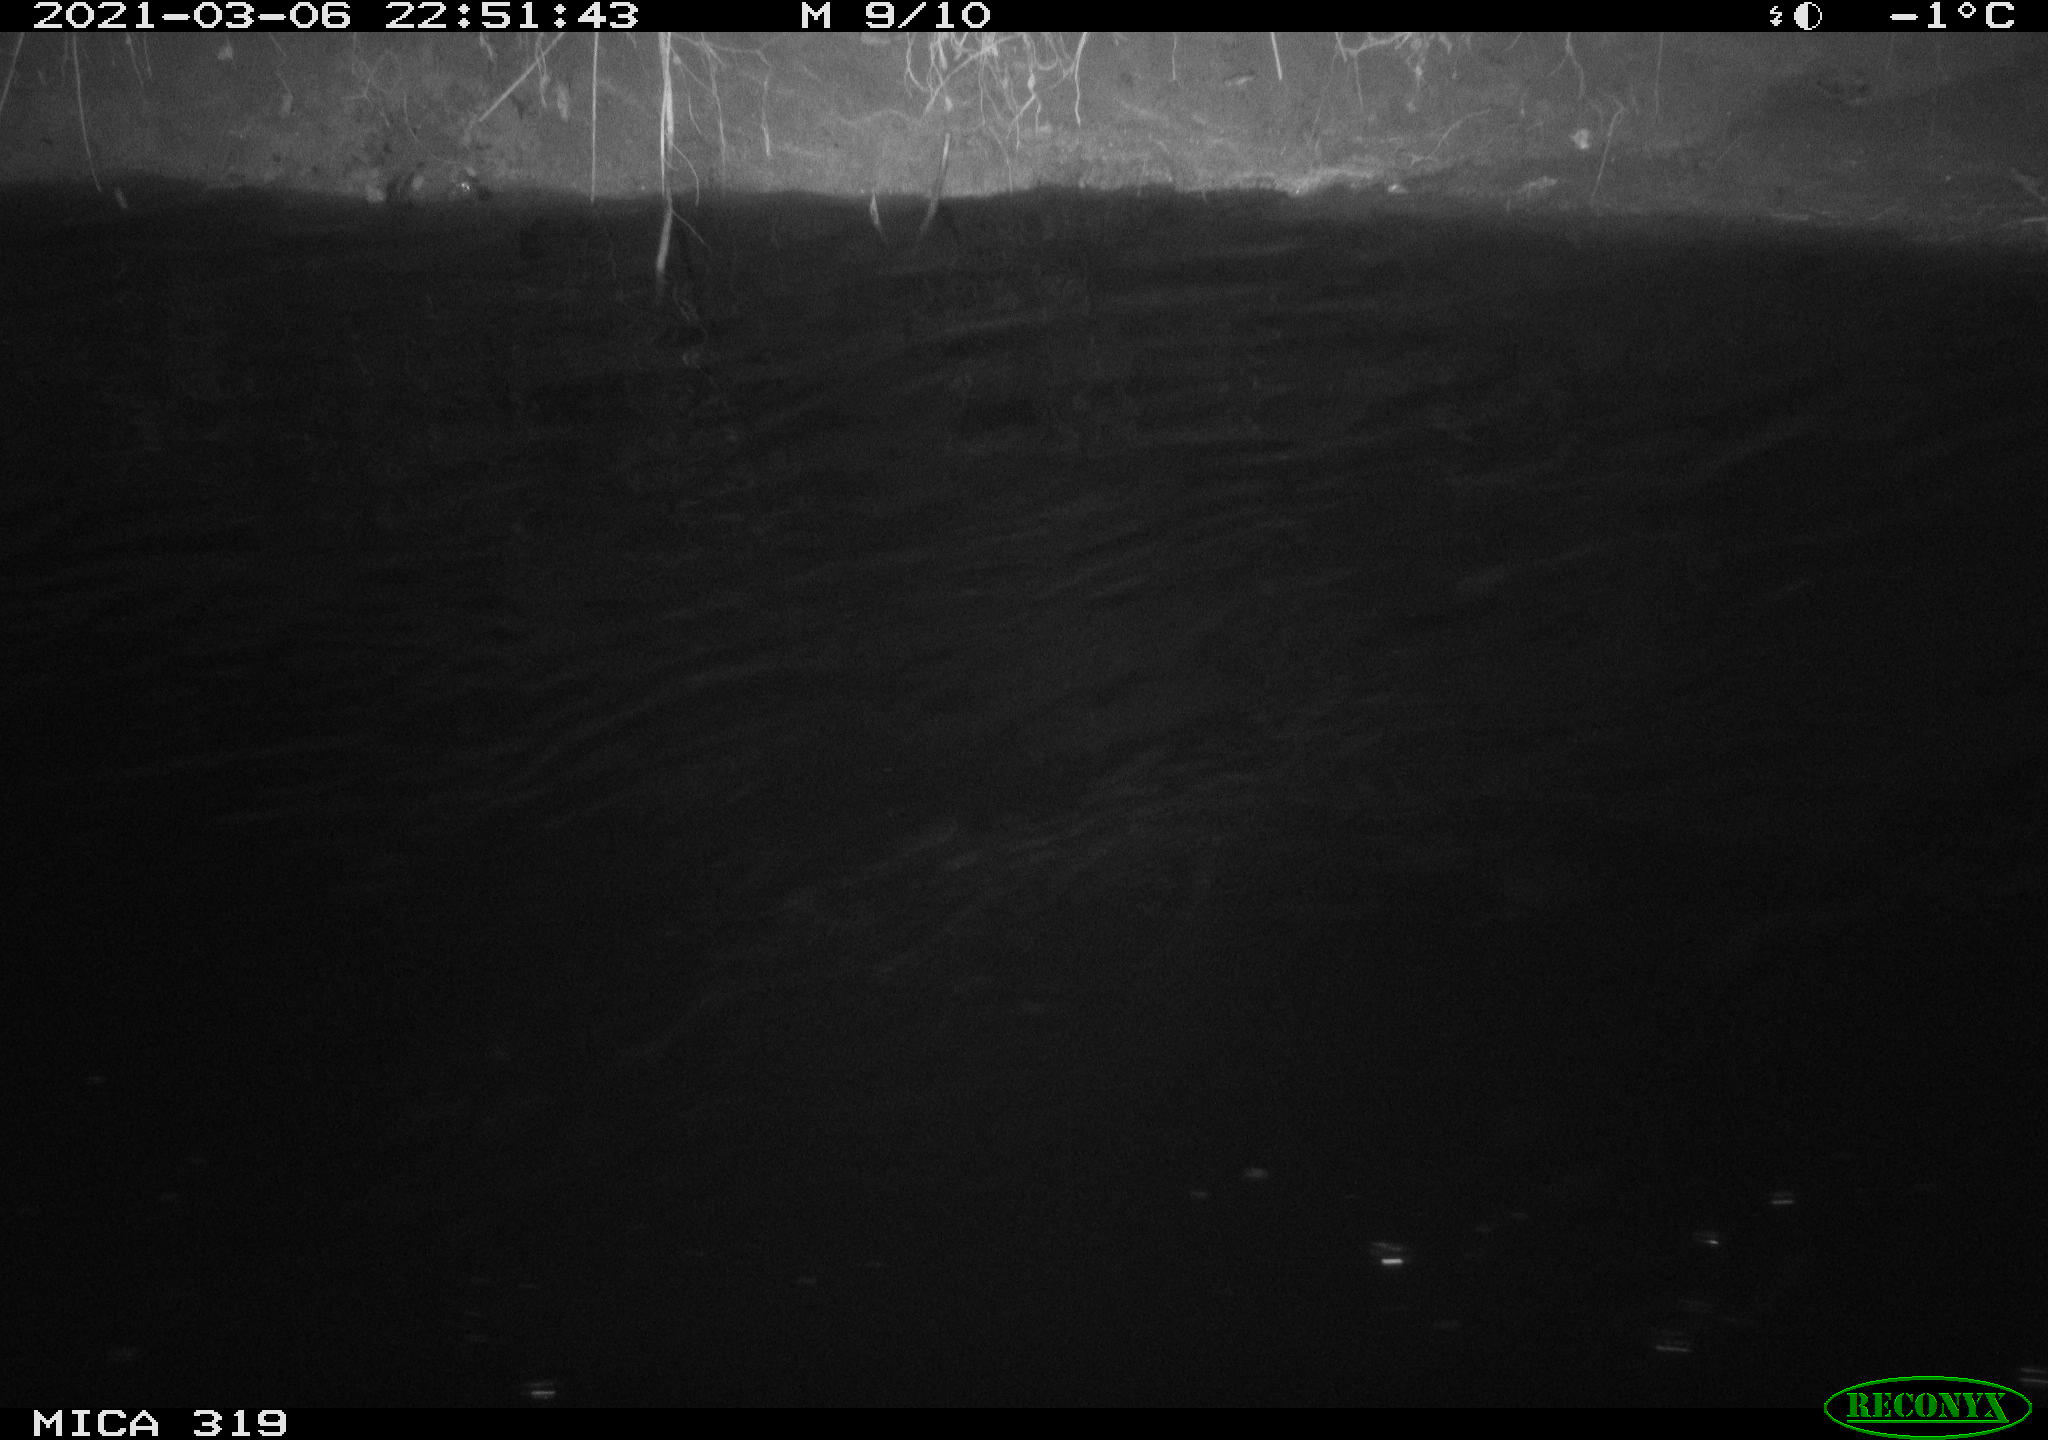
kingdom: Animalia
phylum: Chordata
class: Aves
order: Anseriformes
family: Anatidae
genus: Anas
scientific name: Anas platyrhynchos
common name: Mallard
